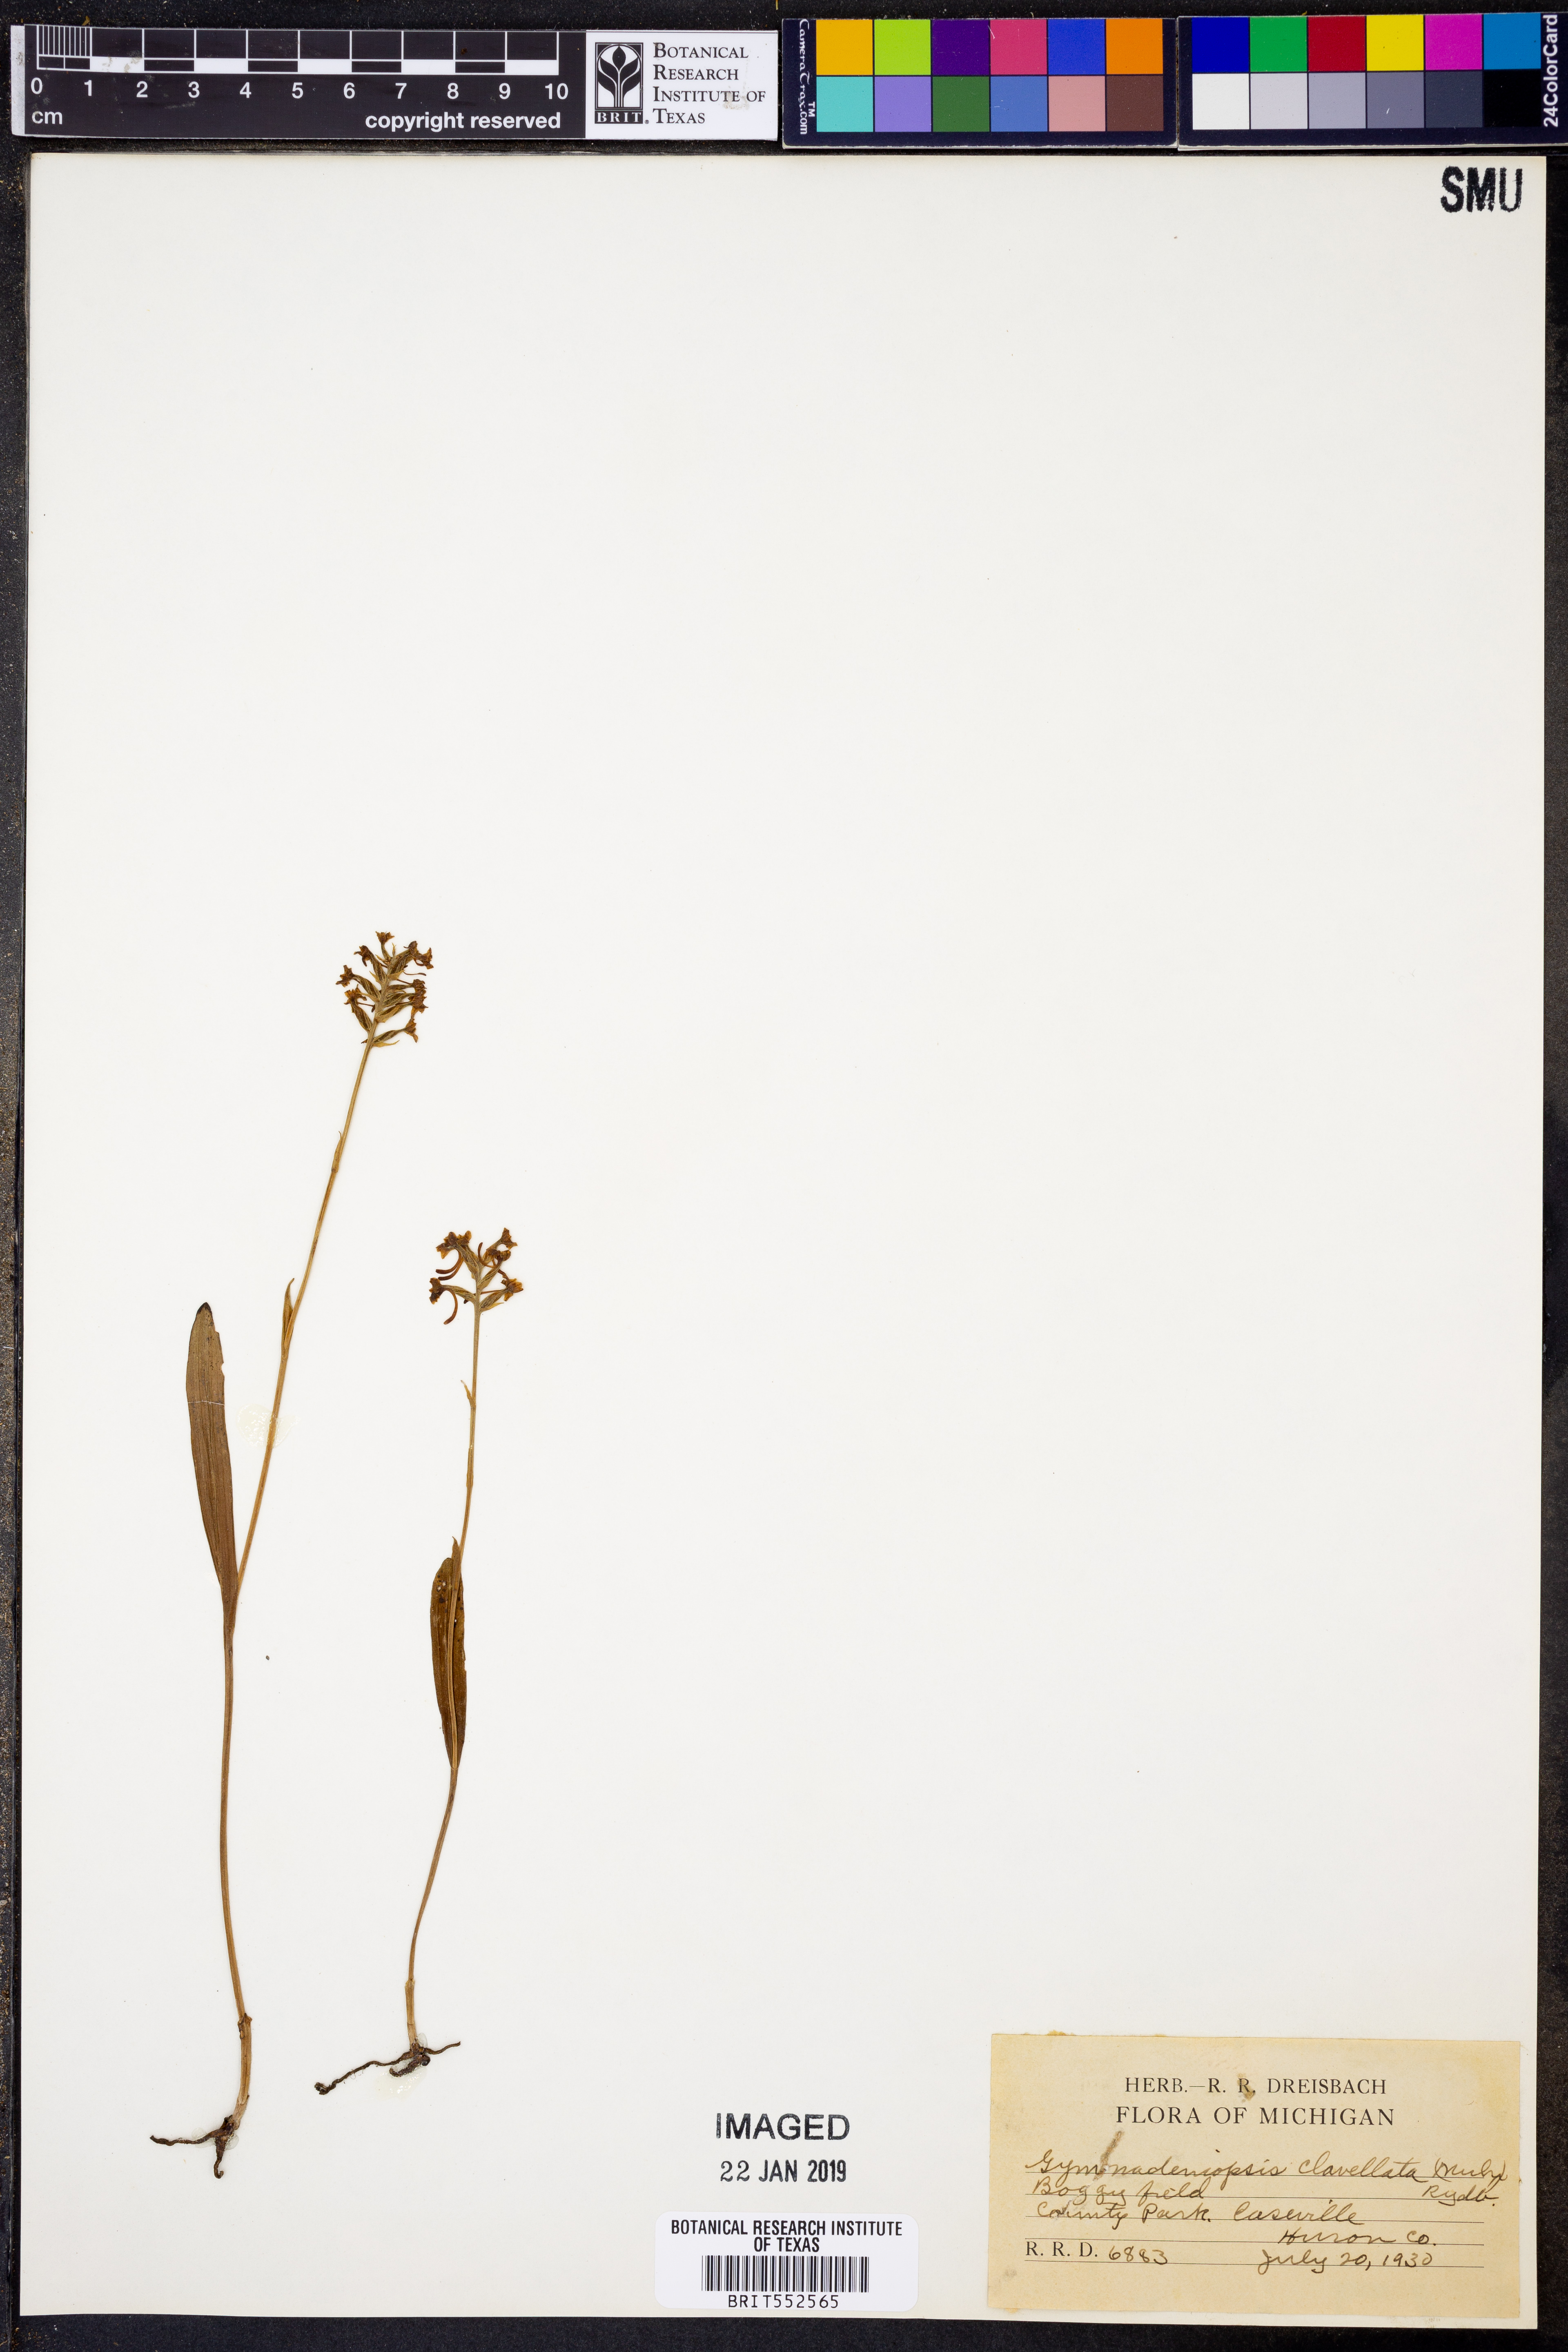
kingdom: Plantae
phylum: Tracheophyta
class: Liliopsida
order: Asparagales
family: Orchidaceae
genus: Platanthera
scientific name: Platanthera clavellata
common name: Club-spur orchid
